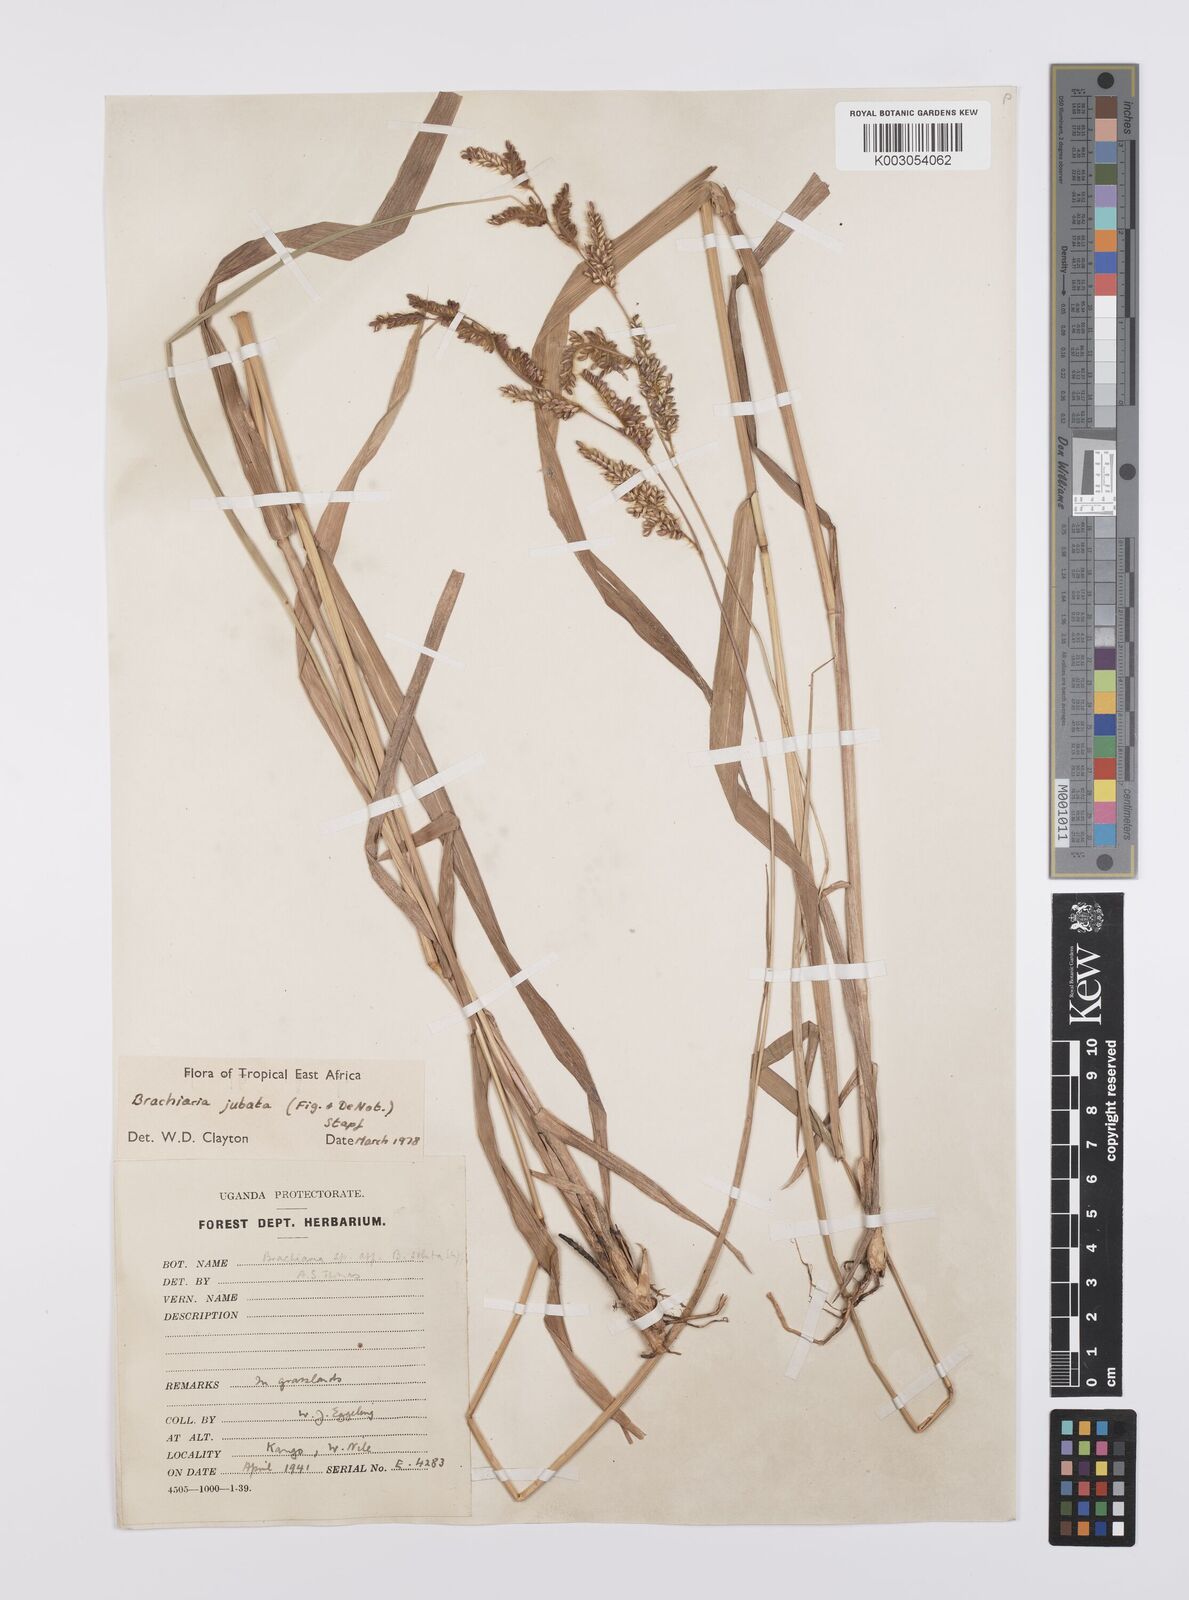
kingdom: Plantae
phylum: Tracheophyta
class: Liliopsida
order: Poales
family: Poaceae
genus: Urochloa
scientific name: Urochloa jubata
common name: Buffalograss
